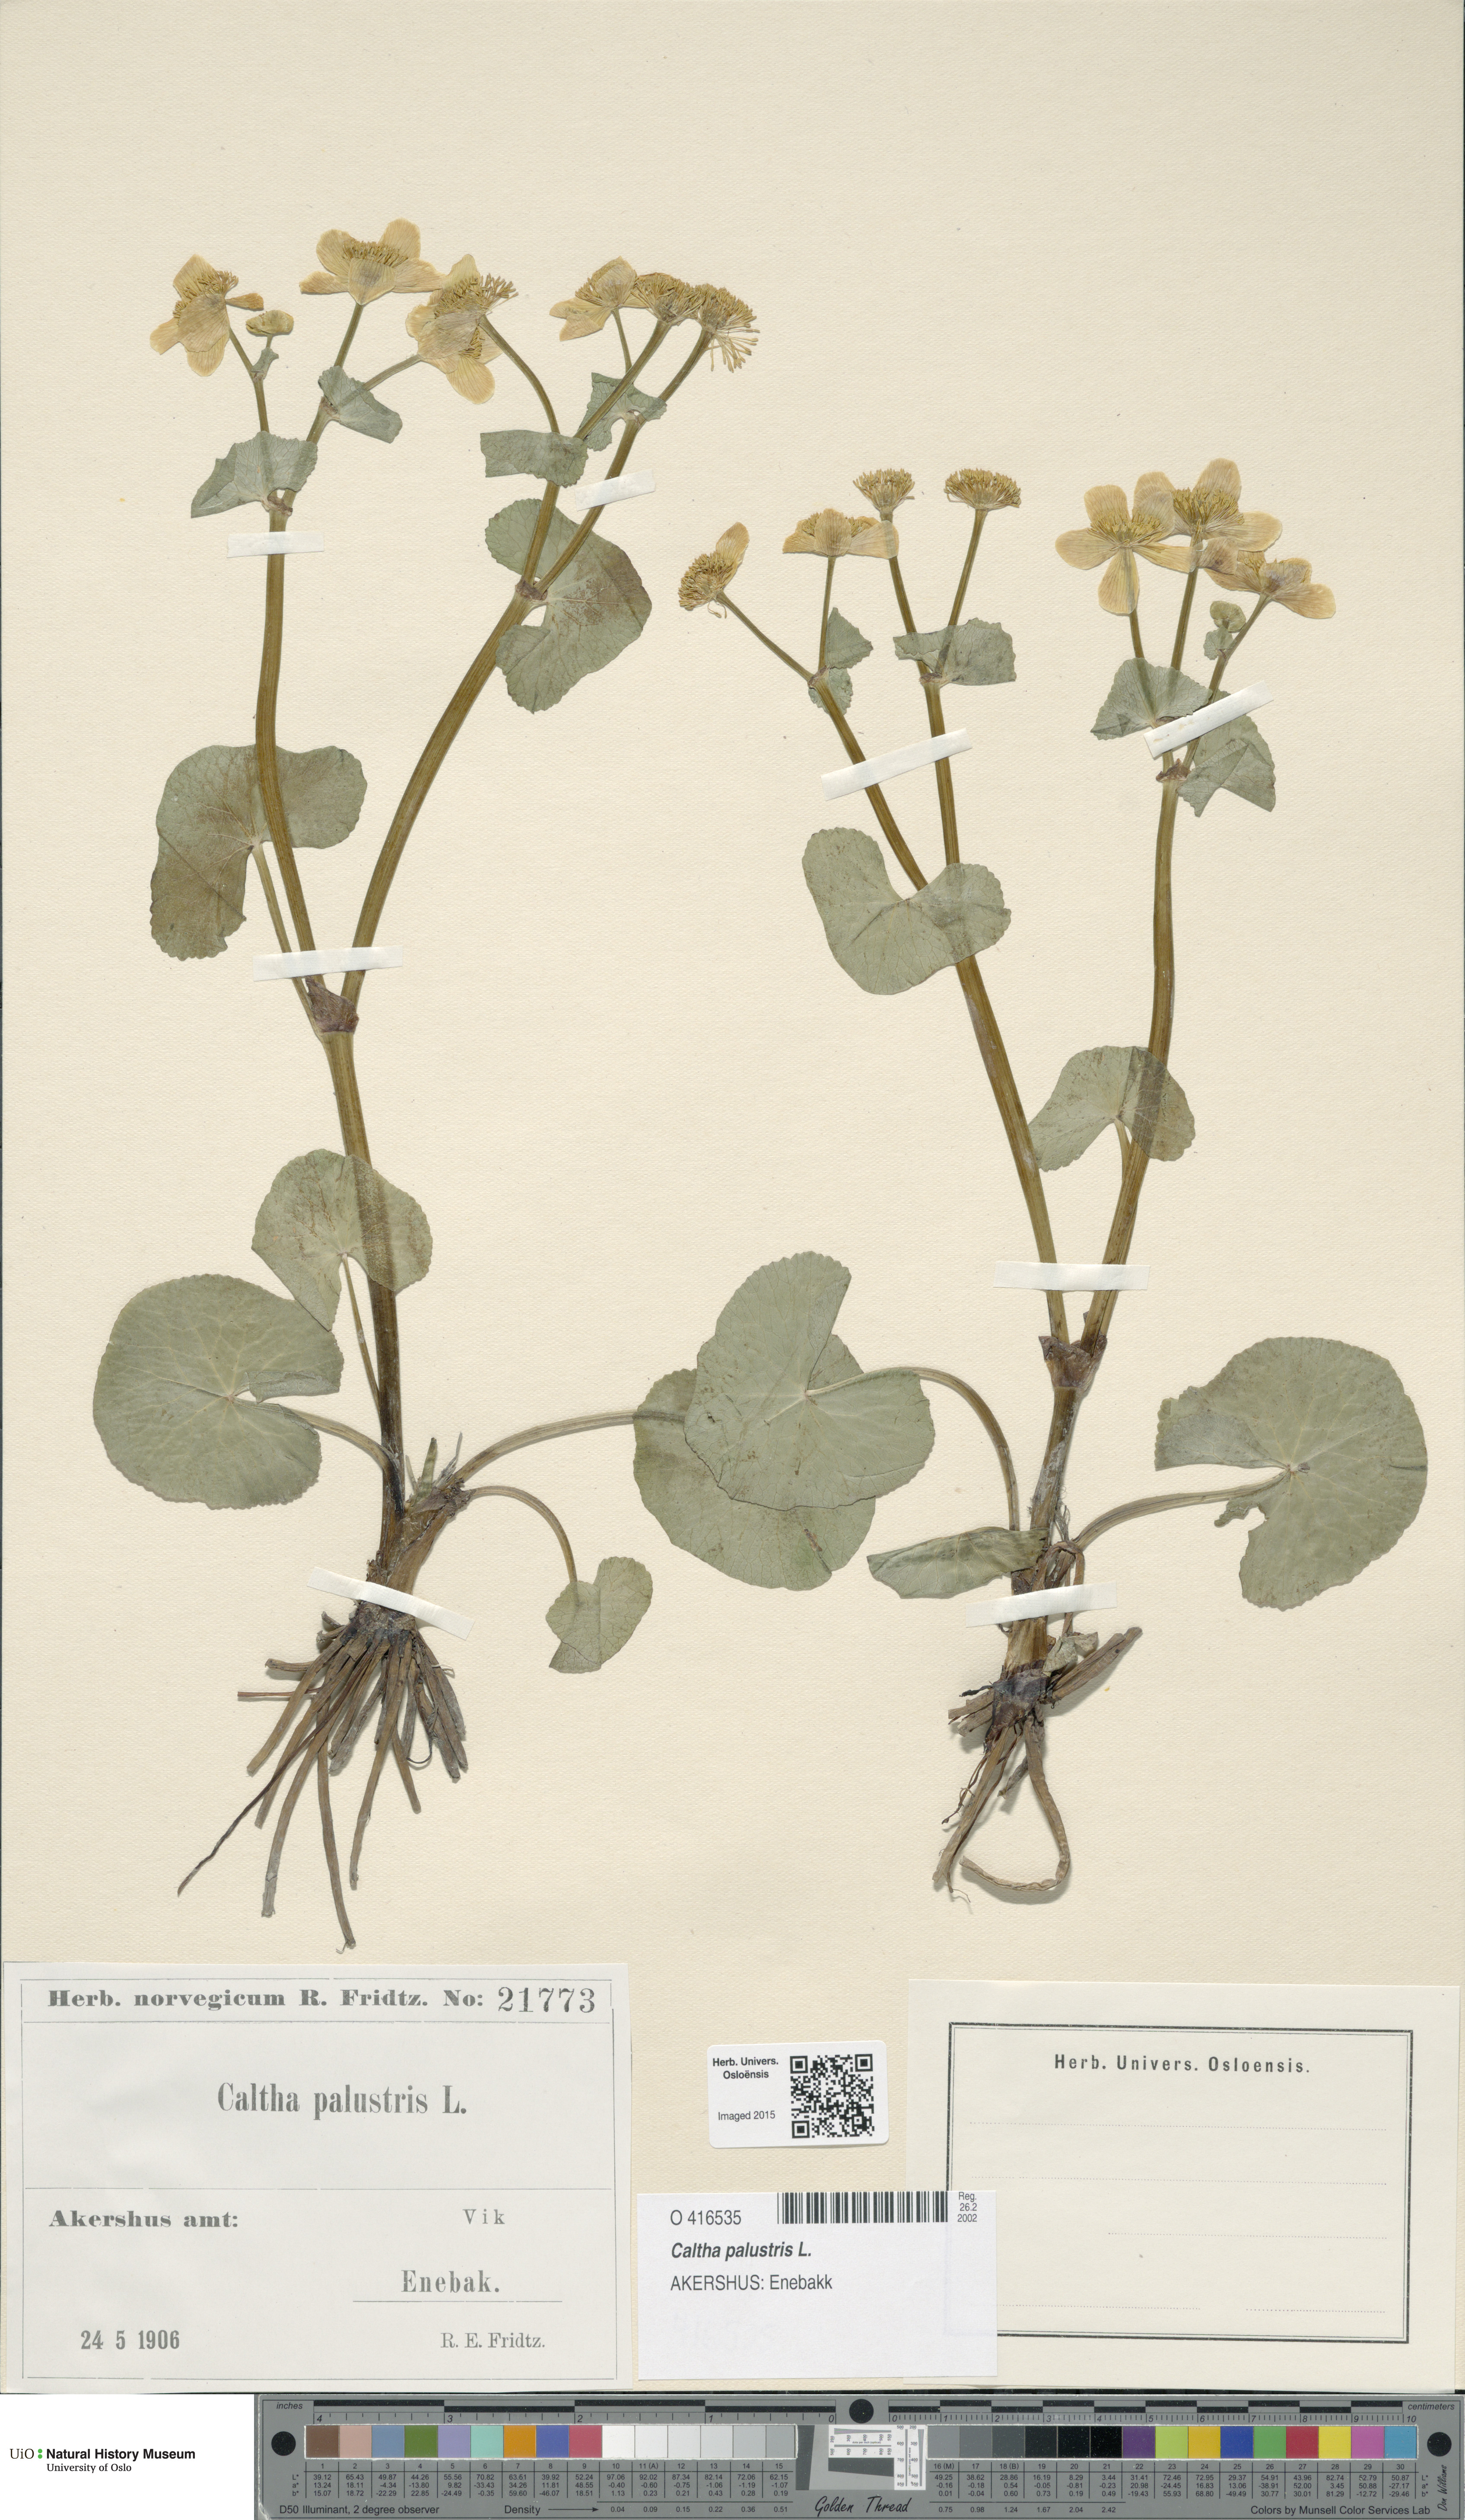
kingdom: Plantae
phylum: Tracheophyta
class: Magnoliopsida
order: Ranunculales
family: Ranunculaceae
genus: Caltha
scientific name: Caltha palustris
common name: Marsh marigold
